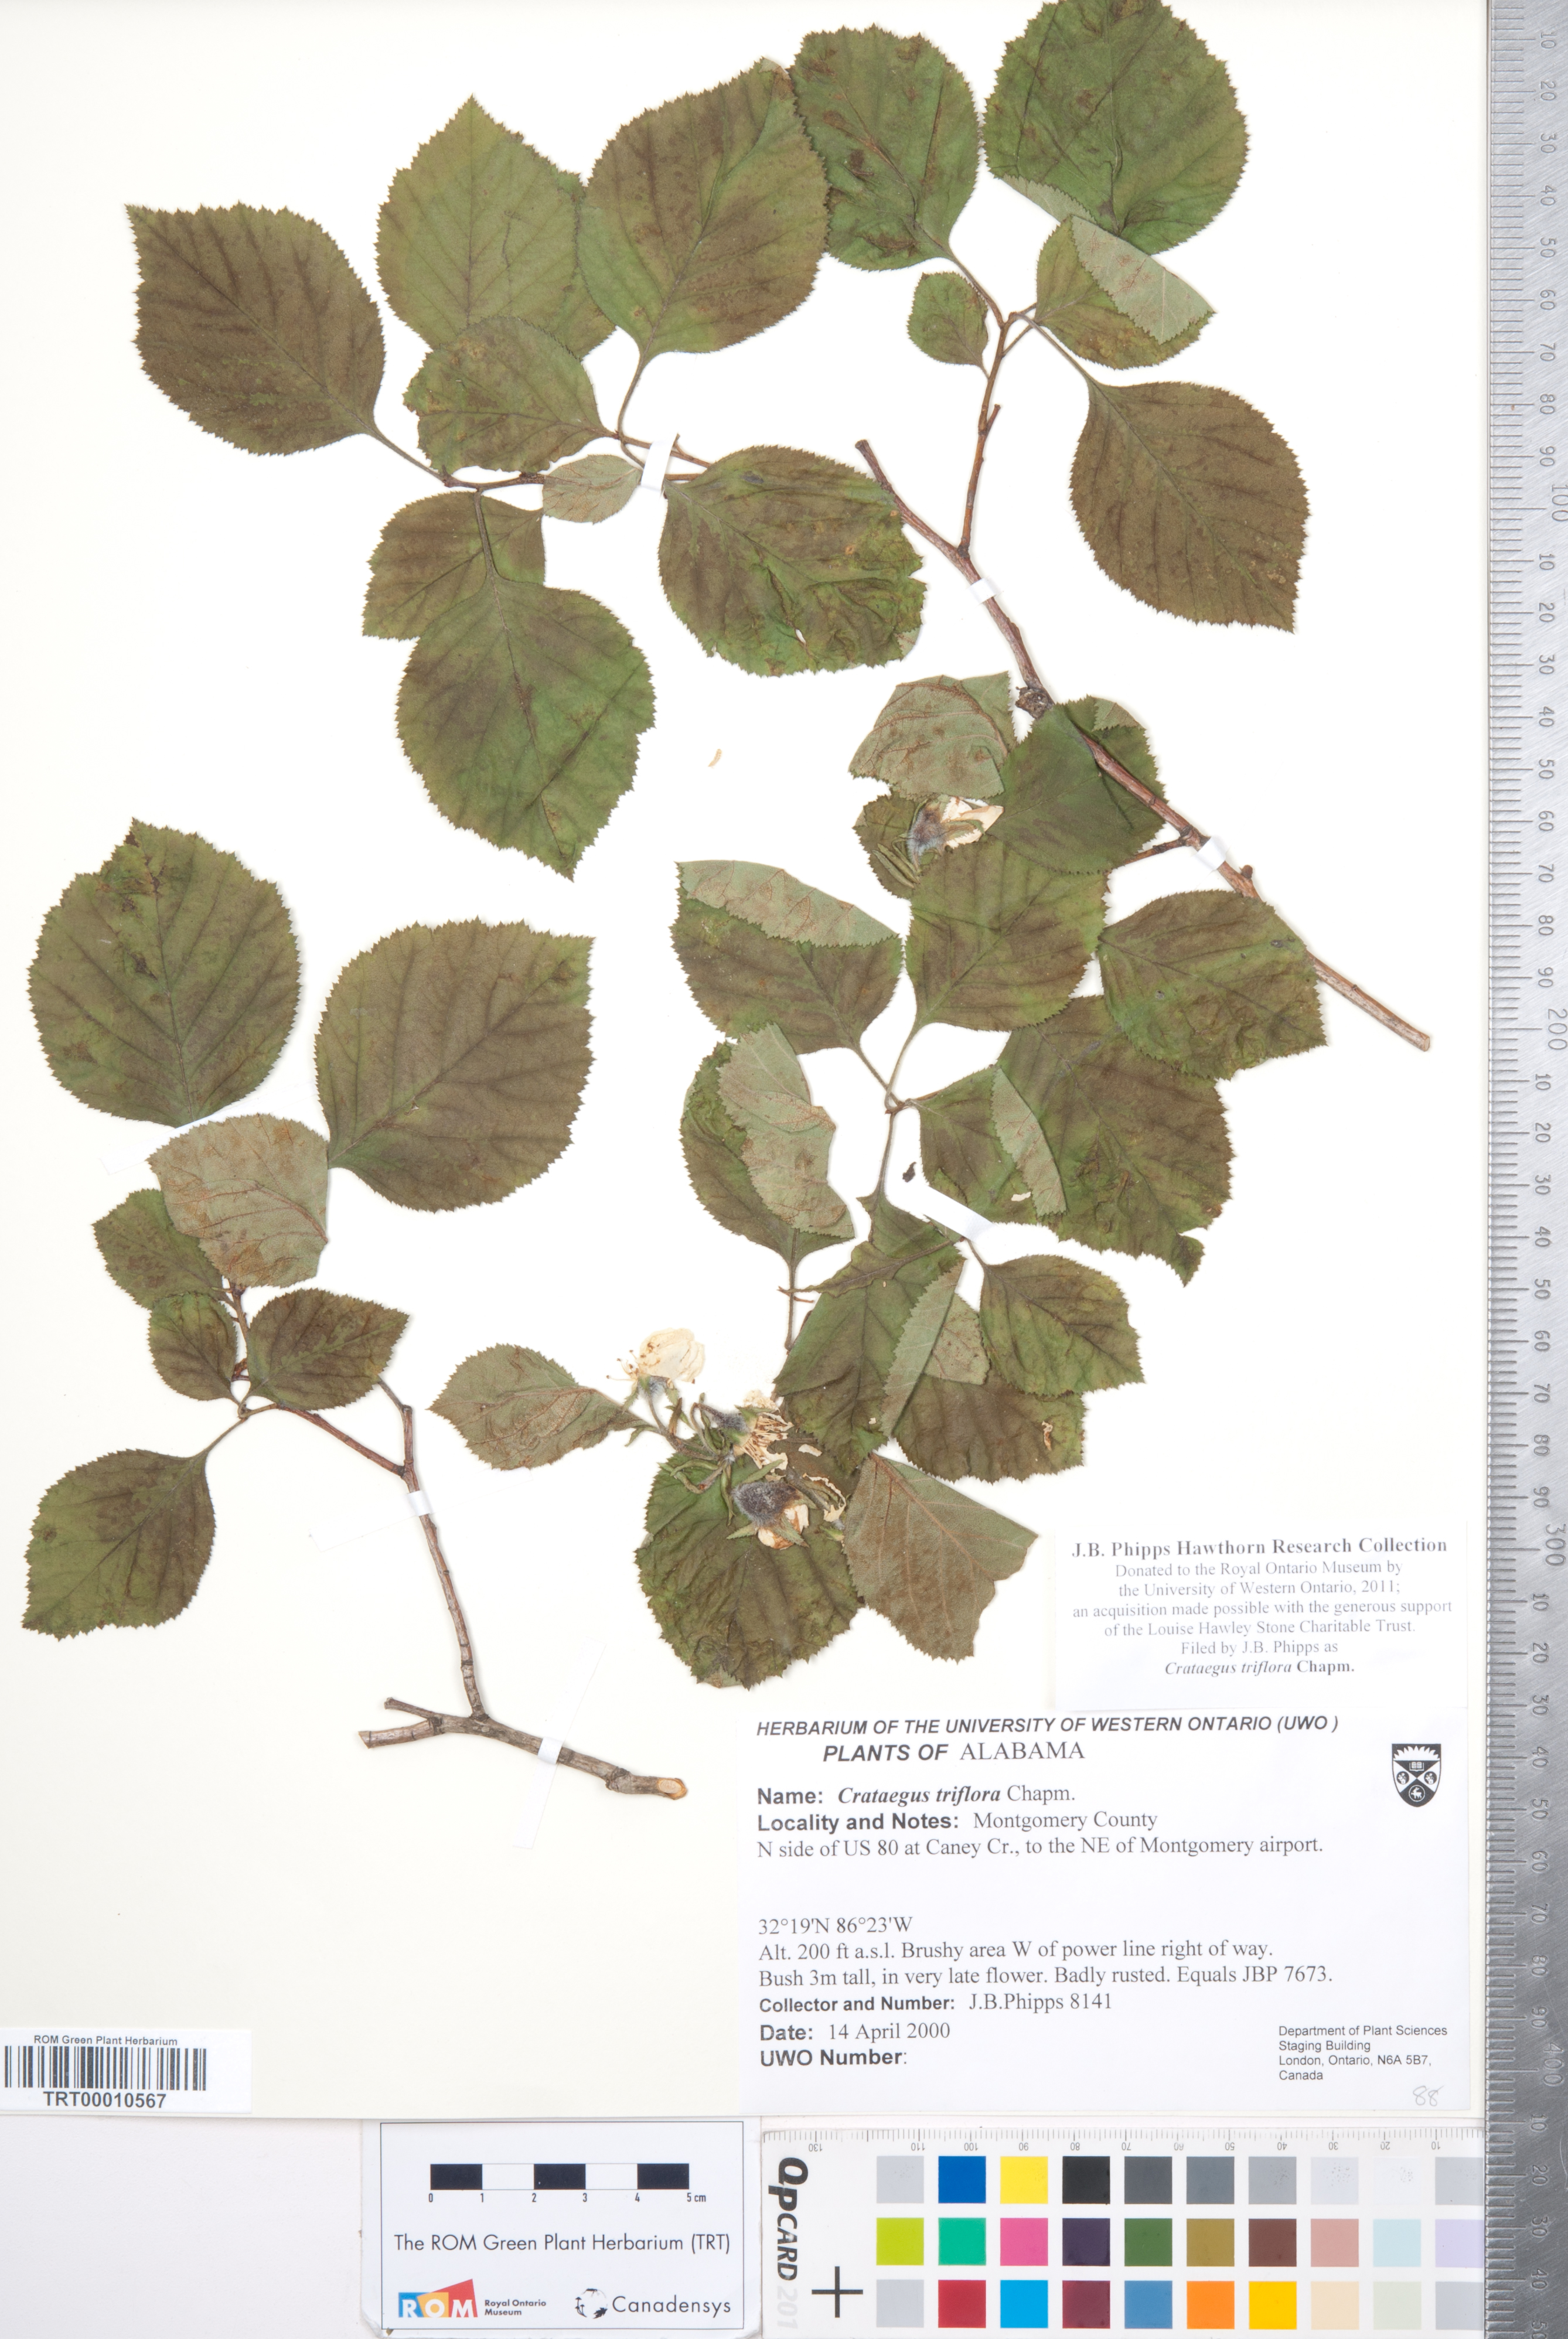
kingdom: Plantae
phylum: Tracheophyta
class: Magnoliopsida
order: Rosales
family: Rosaceae
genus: Crataegus
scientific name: Crataegus triflora
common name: Three-flower hawthorn
